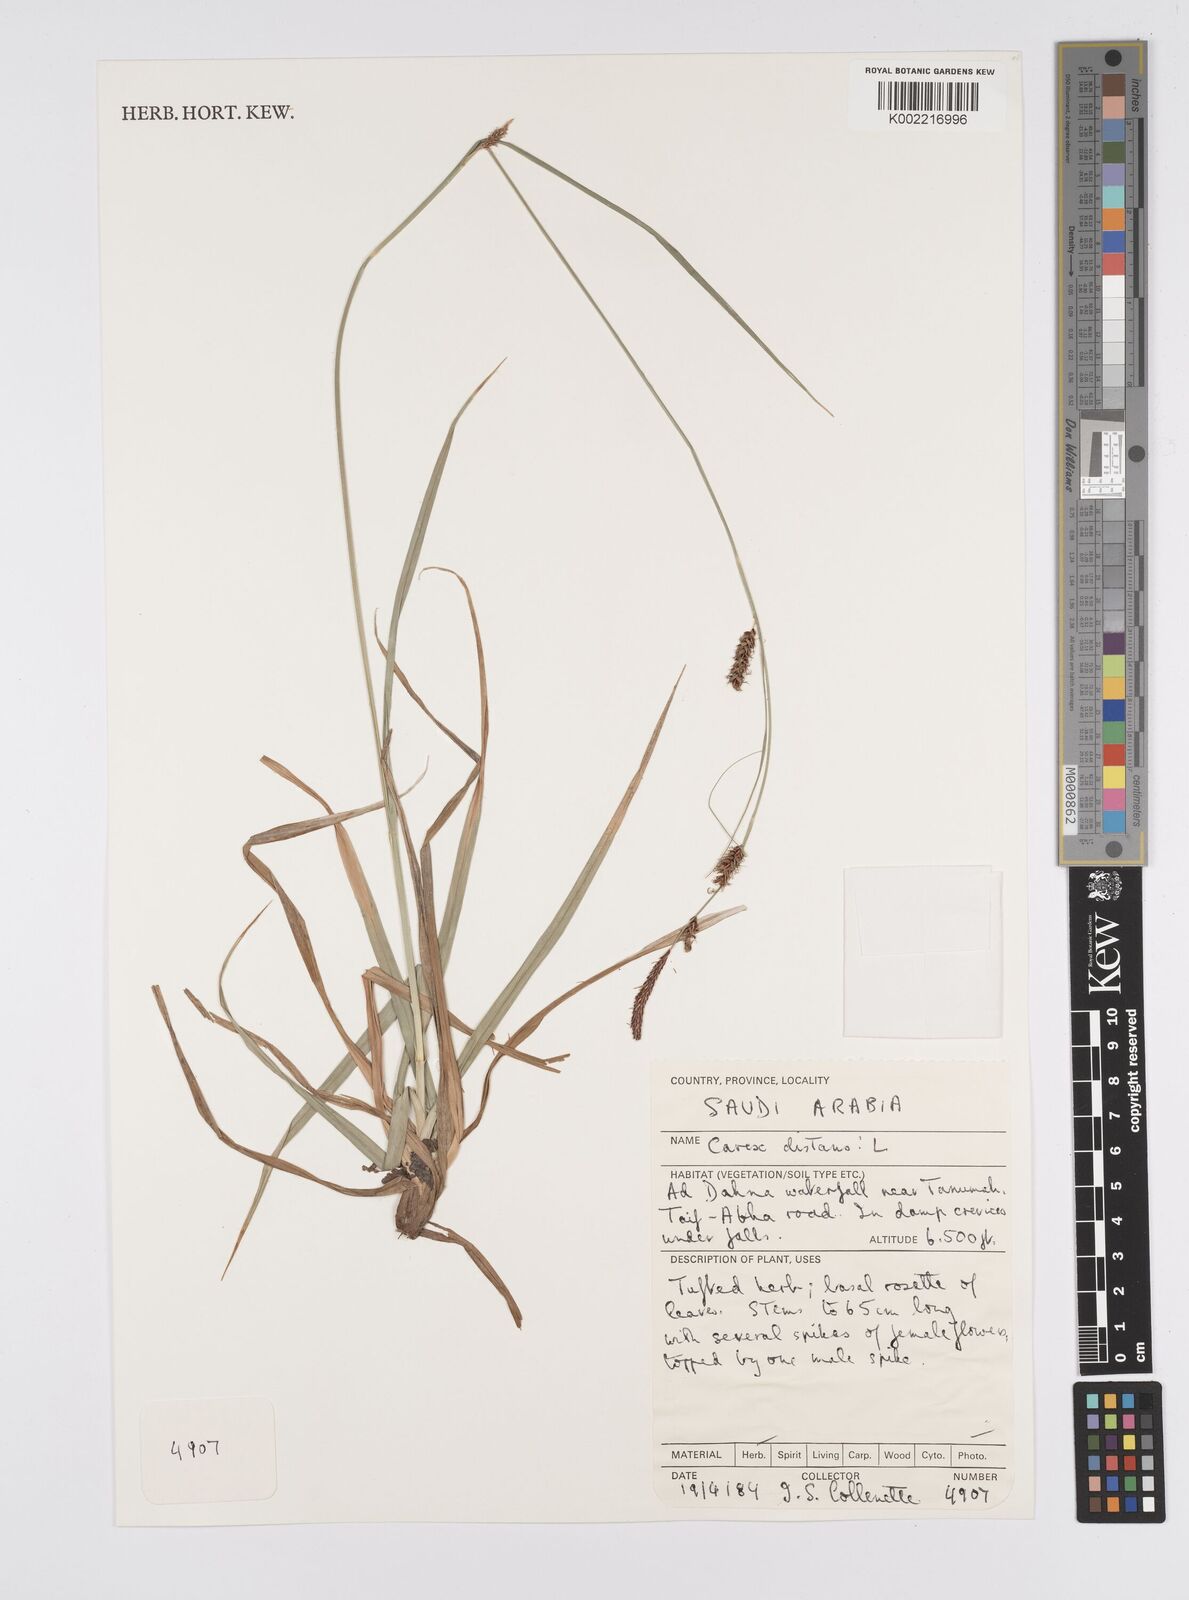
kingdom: Plantae
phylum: Tracheophyta
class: Liliopsida
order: Poales
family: Cyperaceae
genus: Carex
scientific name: Carex distans
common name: Distant sedge
